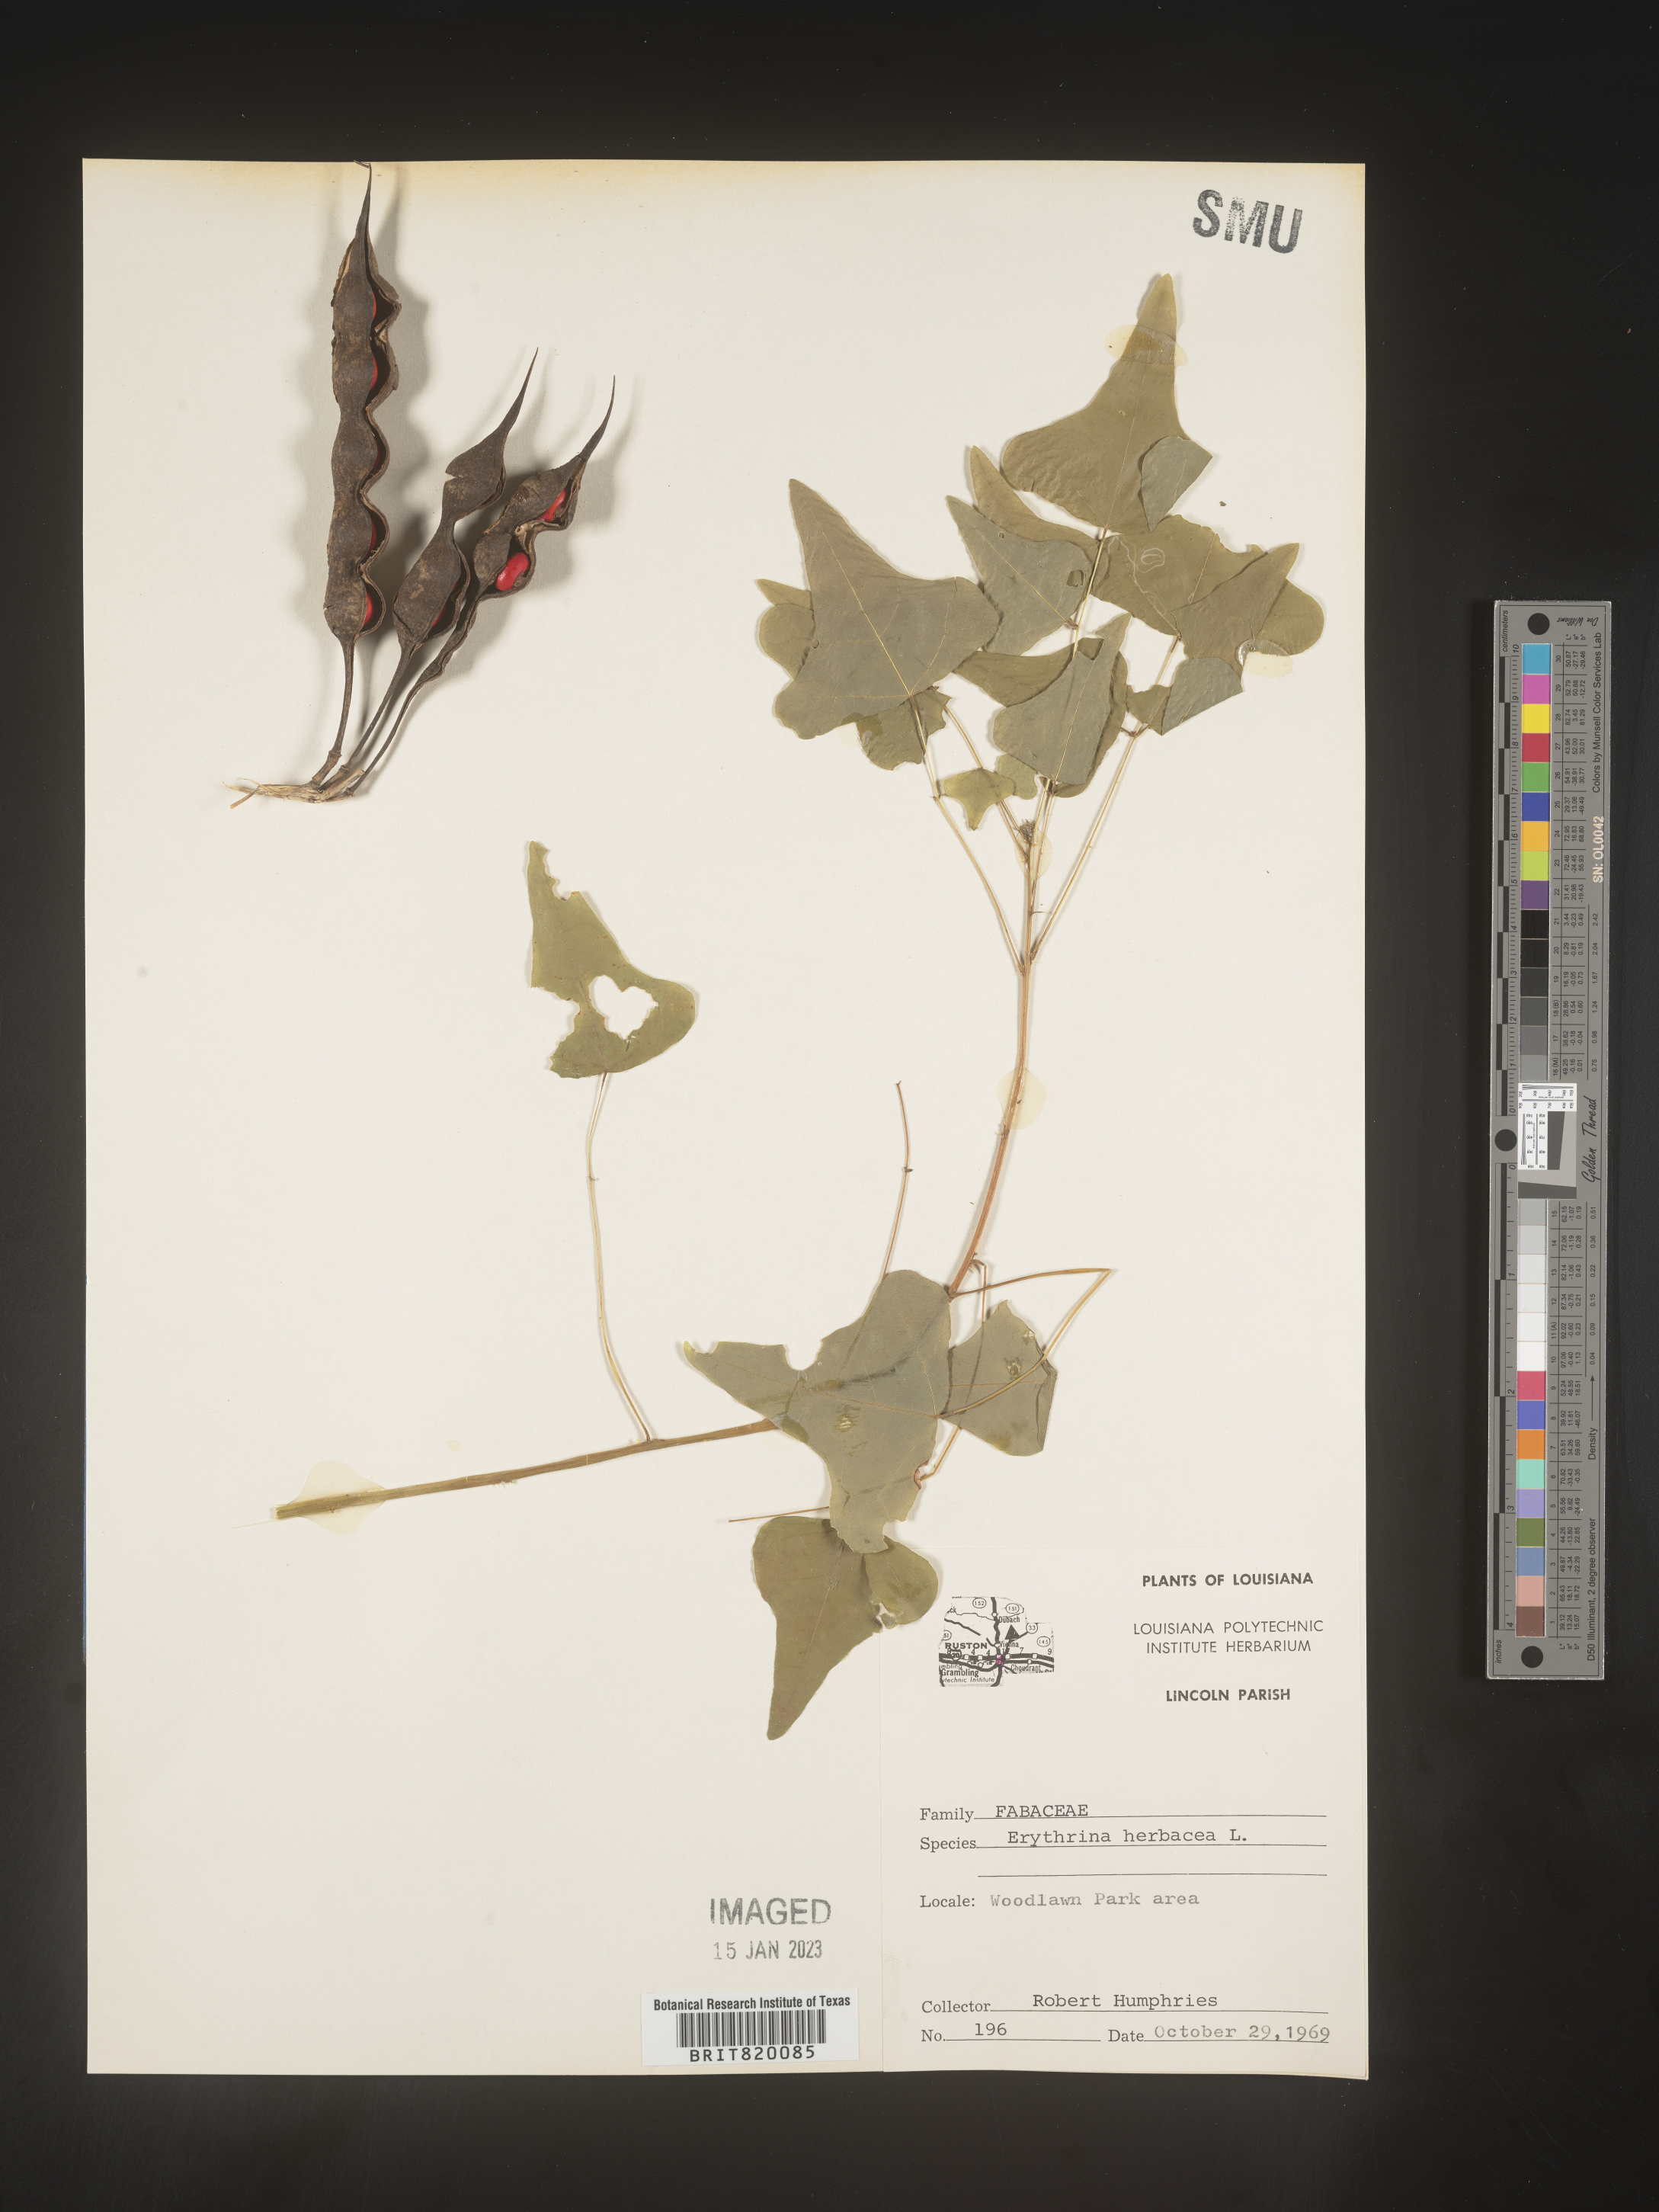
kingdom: Plantae
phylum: Tracheophyta
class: Magnoliopsida
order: Fabales
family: Fabaceae
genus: Erythrina
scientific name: Erythrina herbacea
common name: Coral-bean
